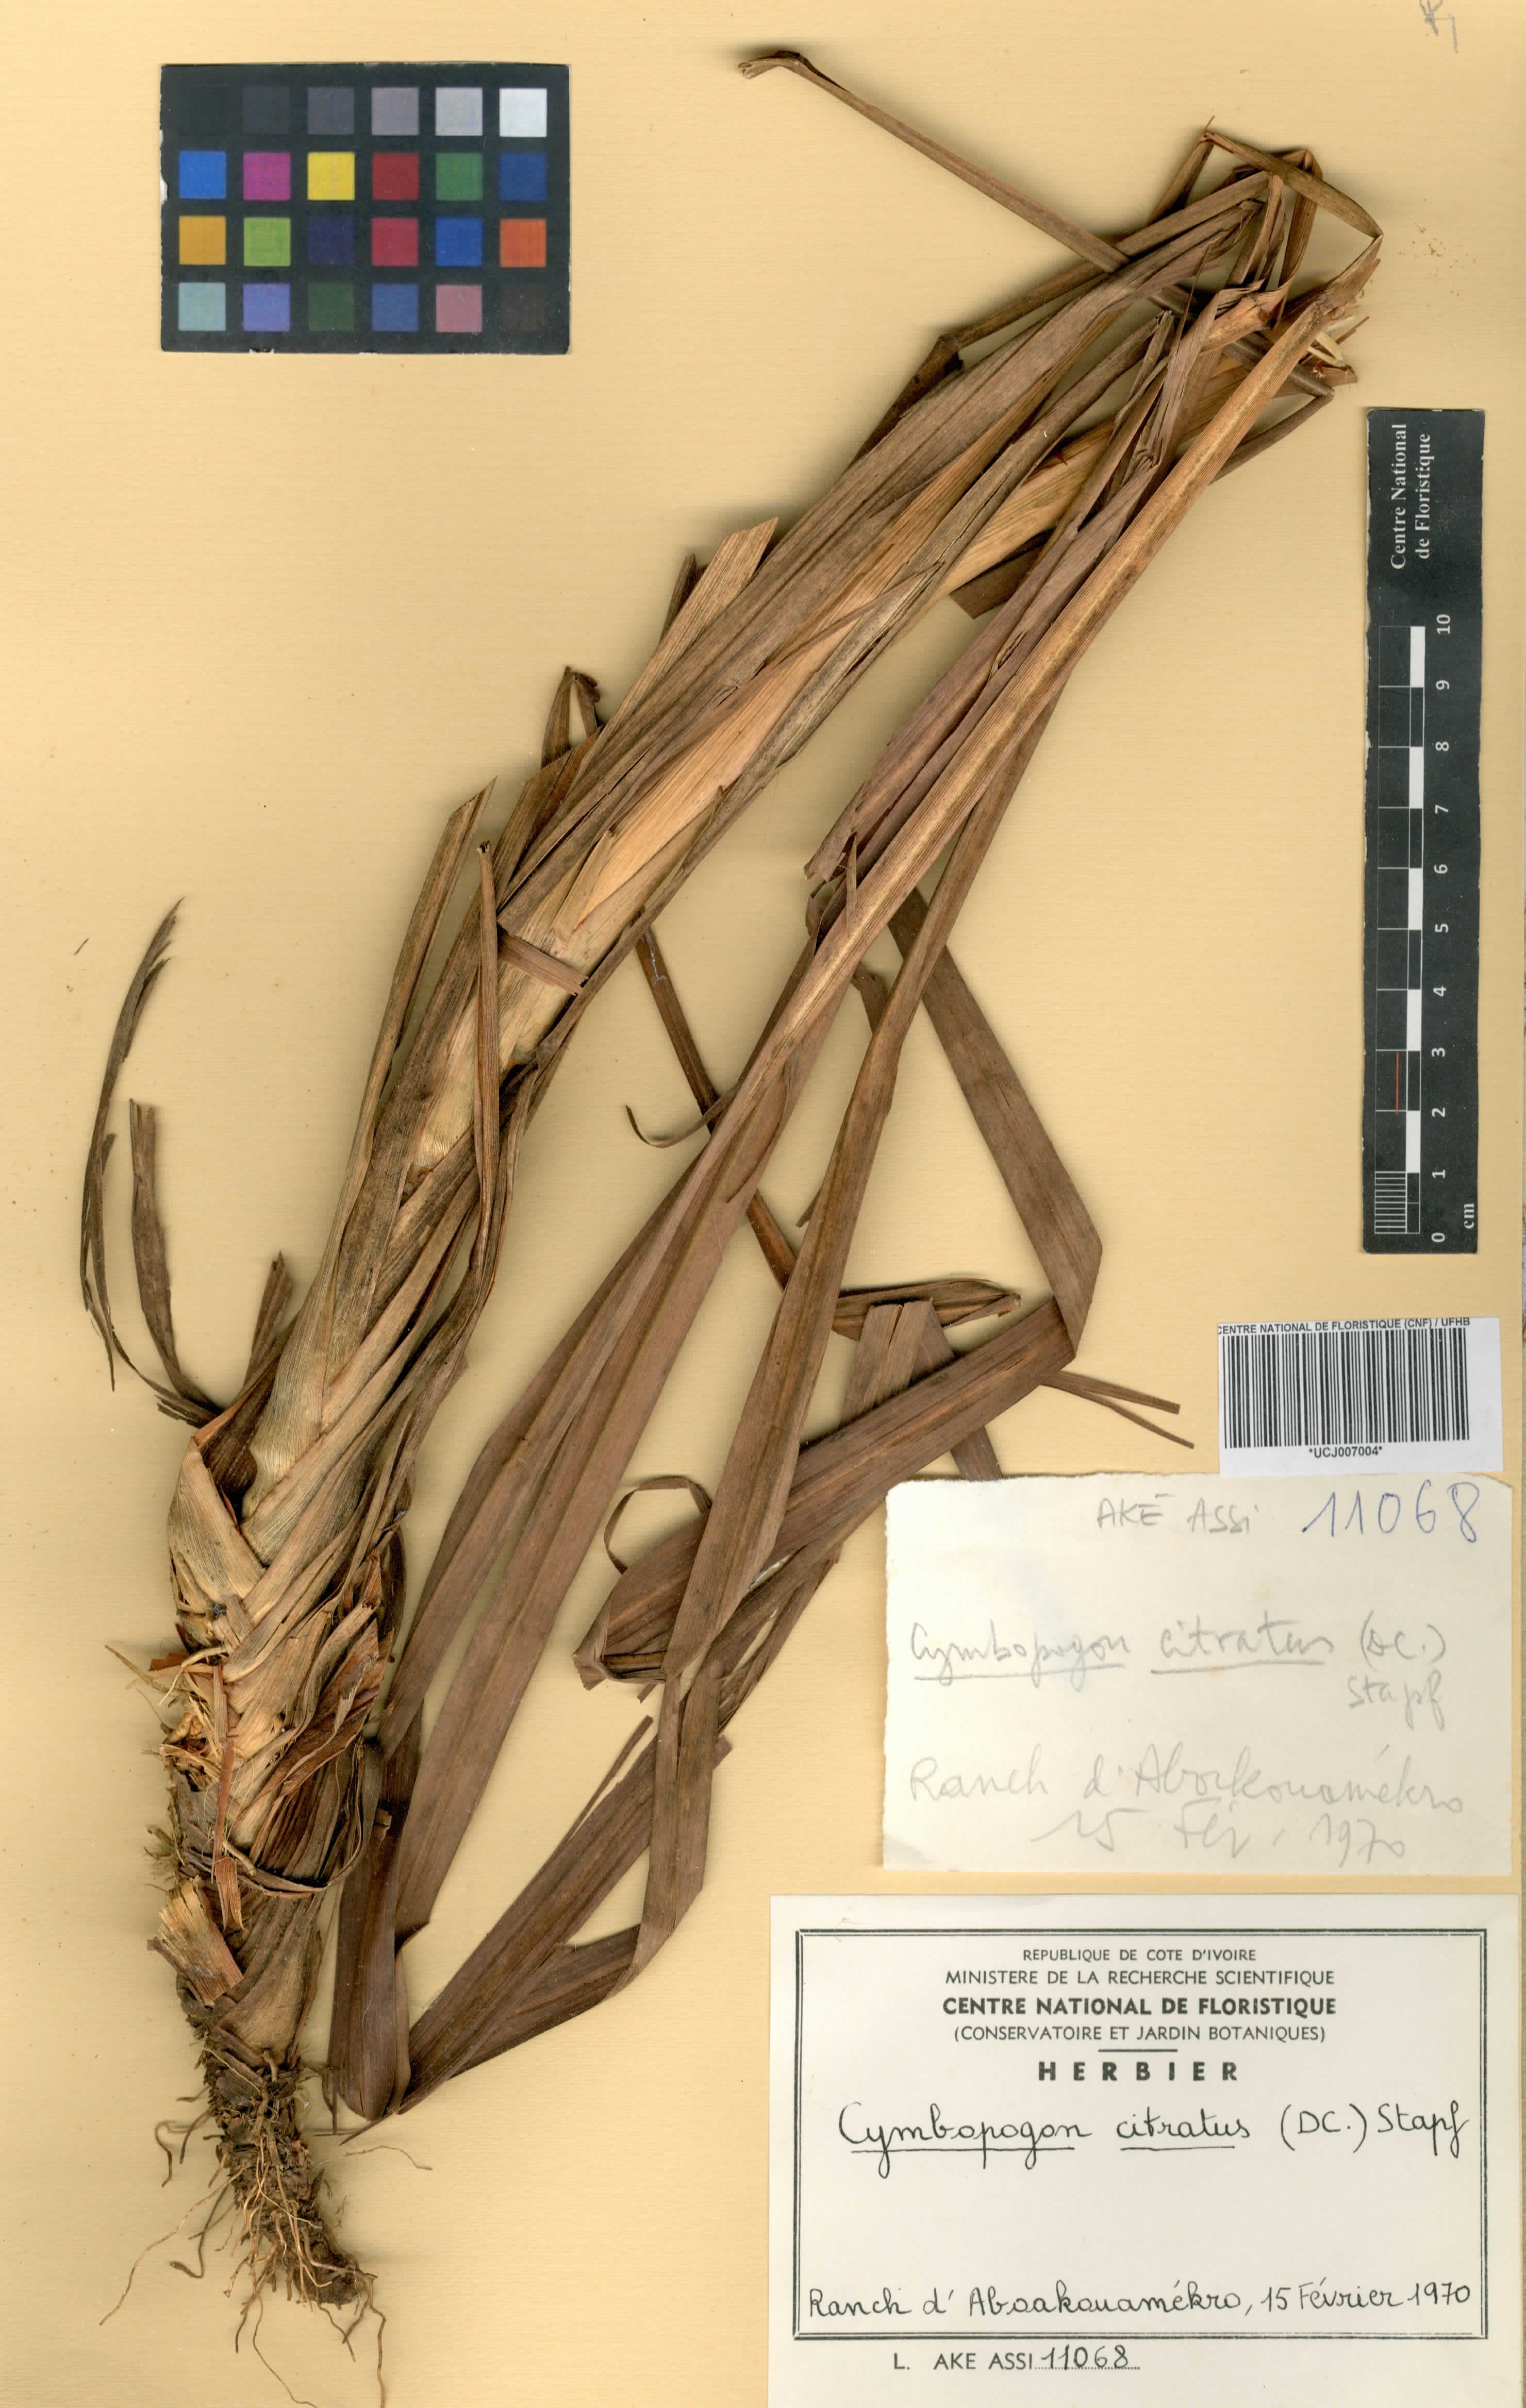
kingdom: Plantae
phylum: Tracheophyta
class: Liliopsida
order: Poales
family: Poaceae
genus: Cymbopogon
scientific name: Cymbopogon citratus
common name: Lemon grass
